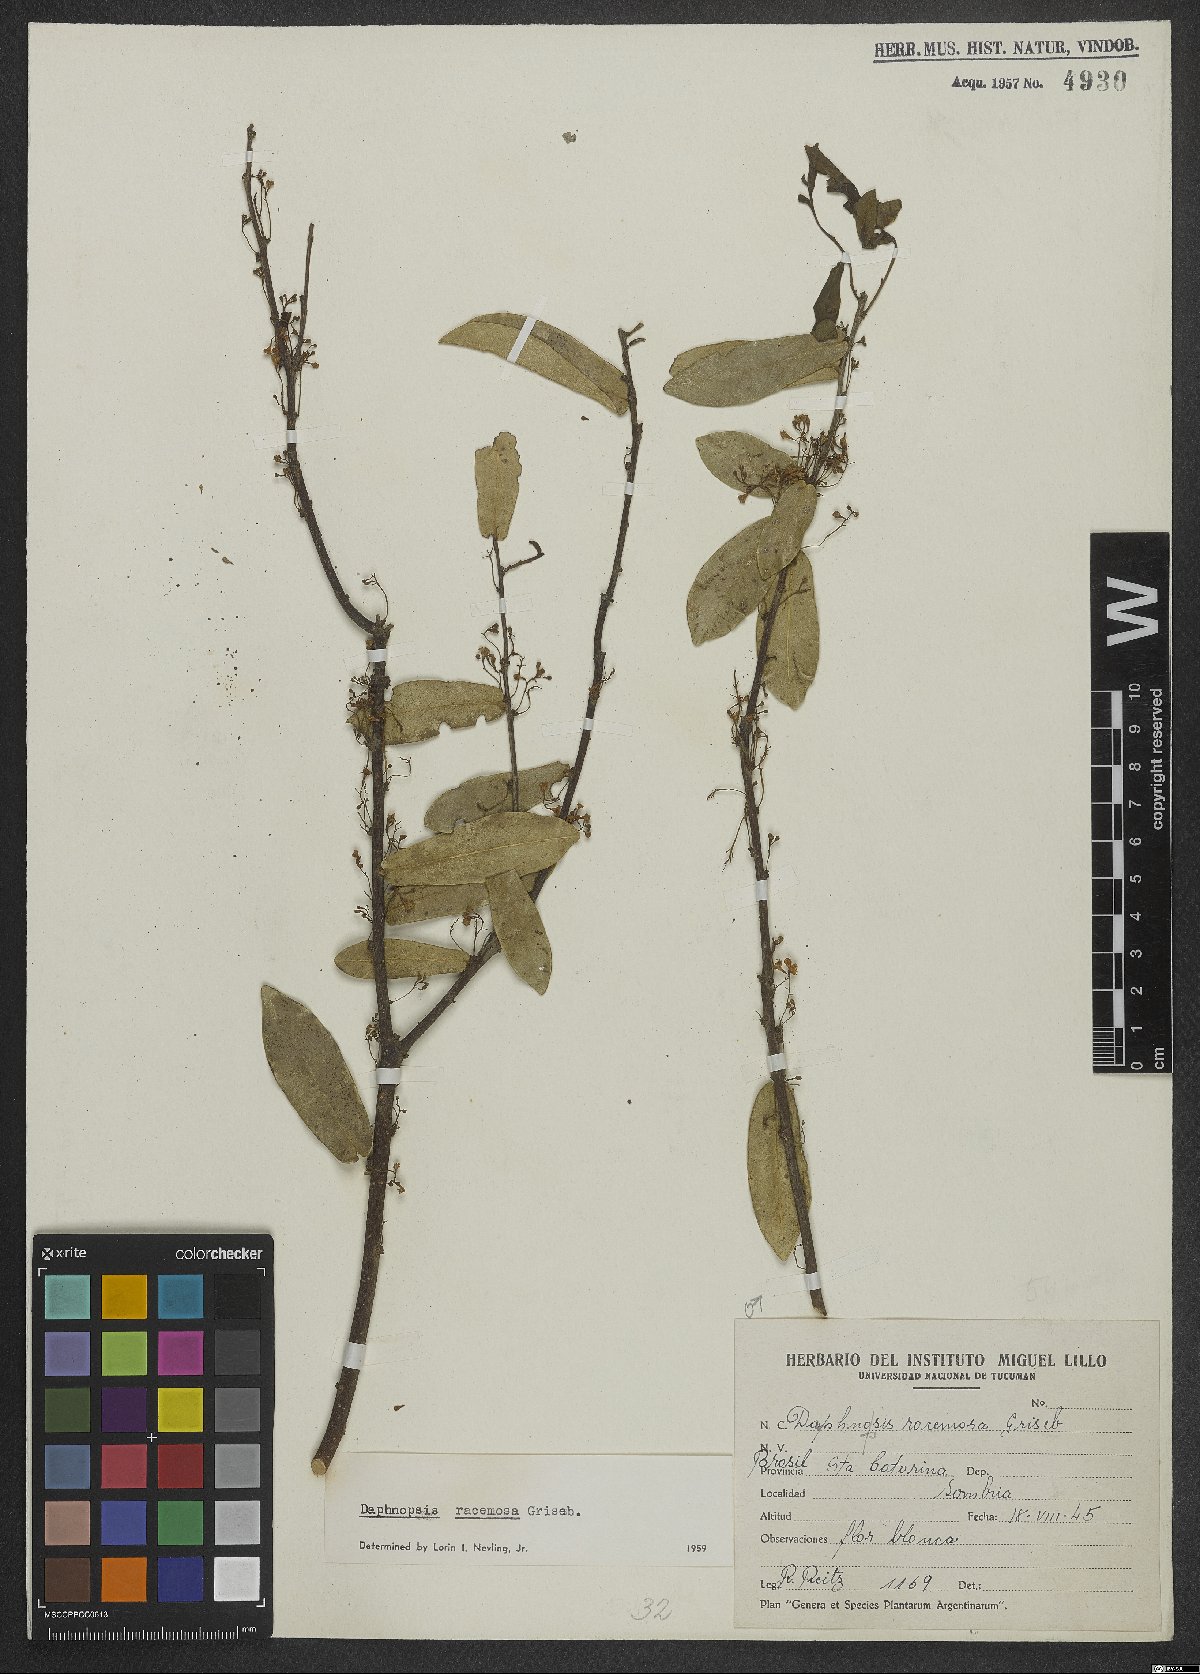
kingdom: Plantae
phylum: Tracheophyta
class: Magnoliopsida
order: Malvales
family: Thymelaeaceae
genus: Daphnopsis
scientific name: Daphnopsis racemosa
